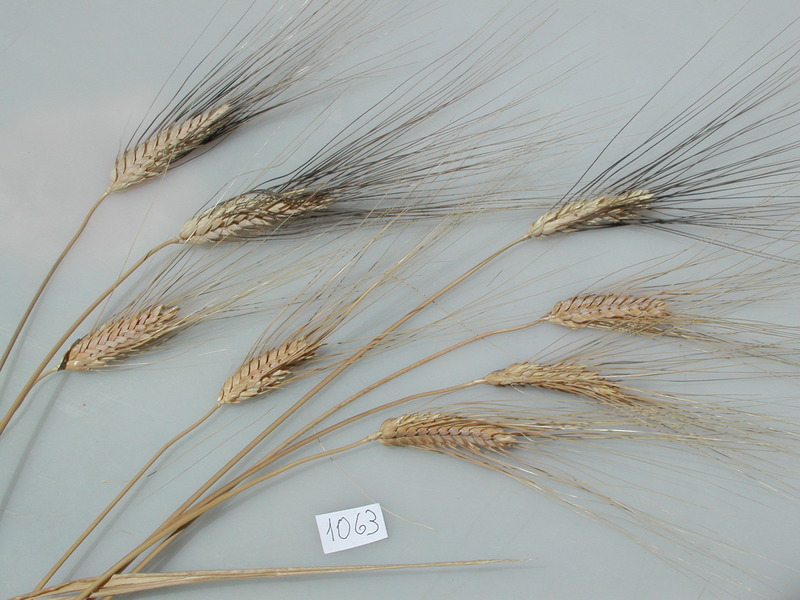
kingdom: Plantae
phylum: Tracheophyta
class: Liliopsida
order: Poales
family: Poaceae
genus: Triticum
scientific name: Triticum turgidum
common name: Wheat
